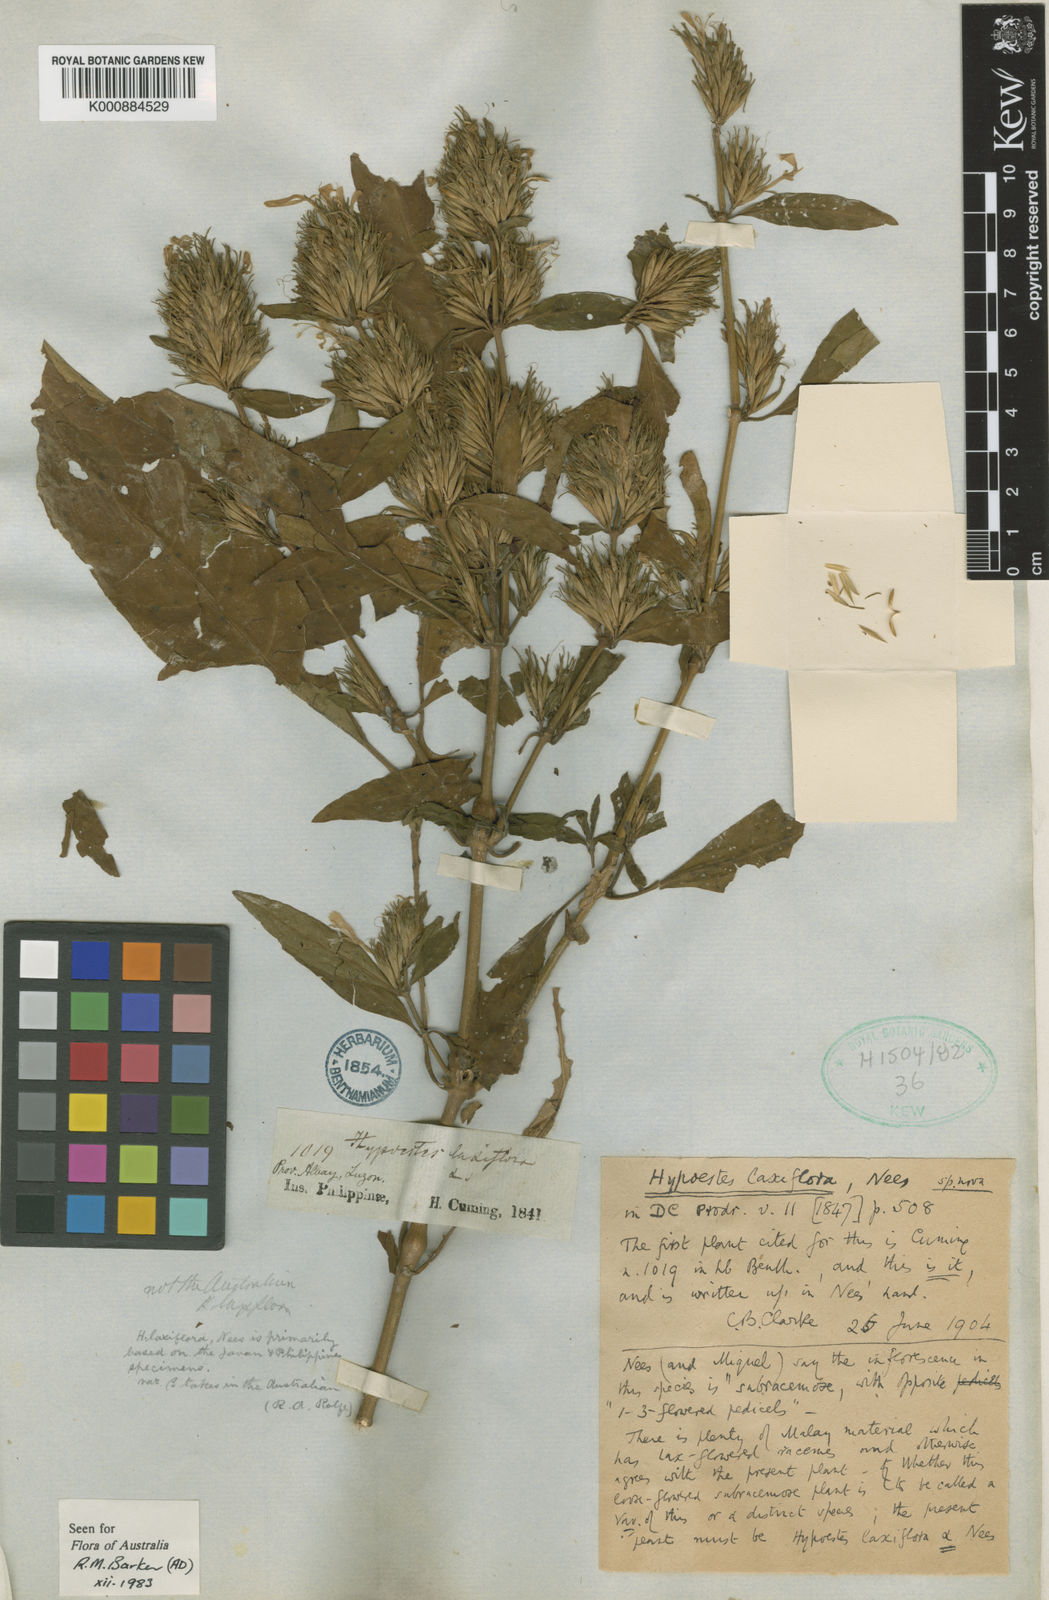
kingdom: Plantae
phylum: Tracheophyta
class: Magnoliopsida
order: Lamiales
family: Acanthaceae
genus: Hypoestes
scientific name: Hypoestes malaccensis
